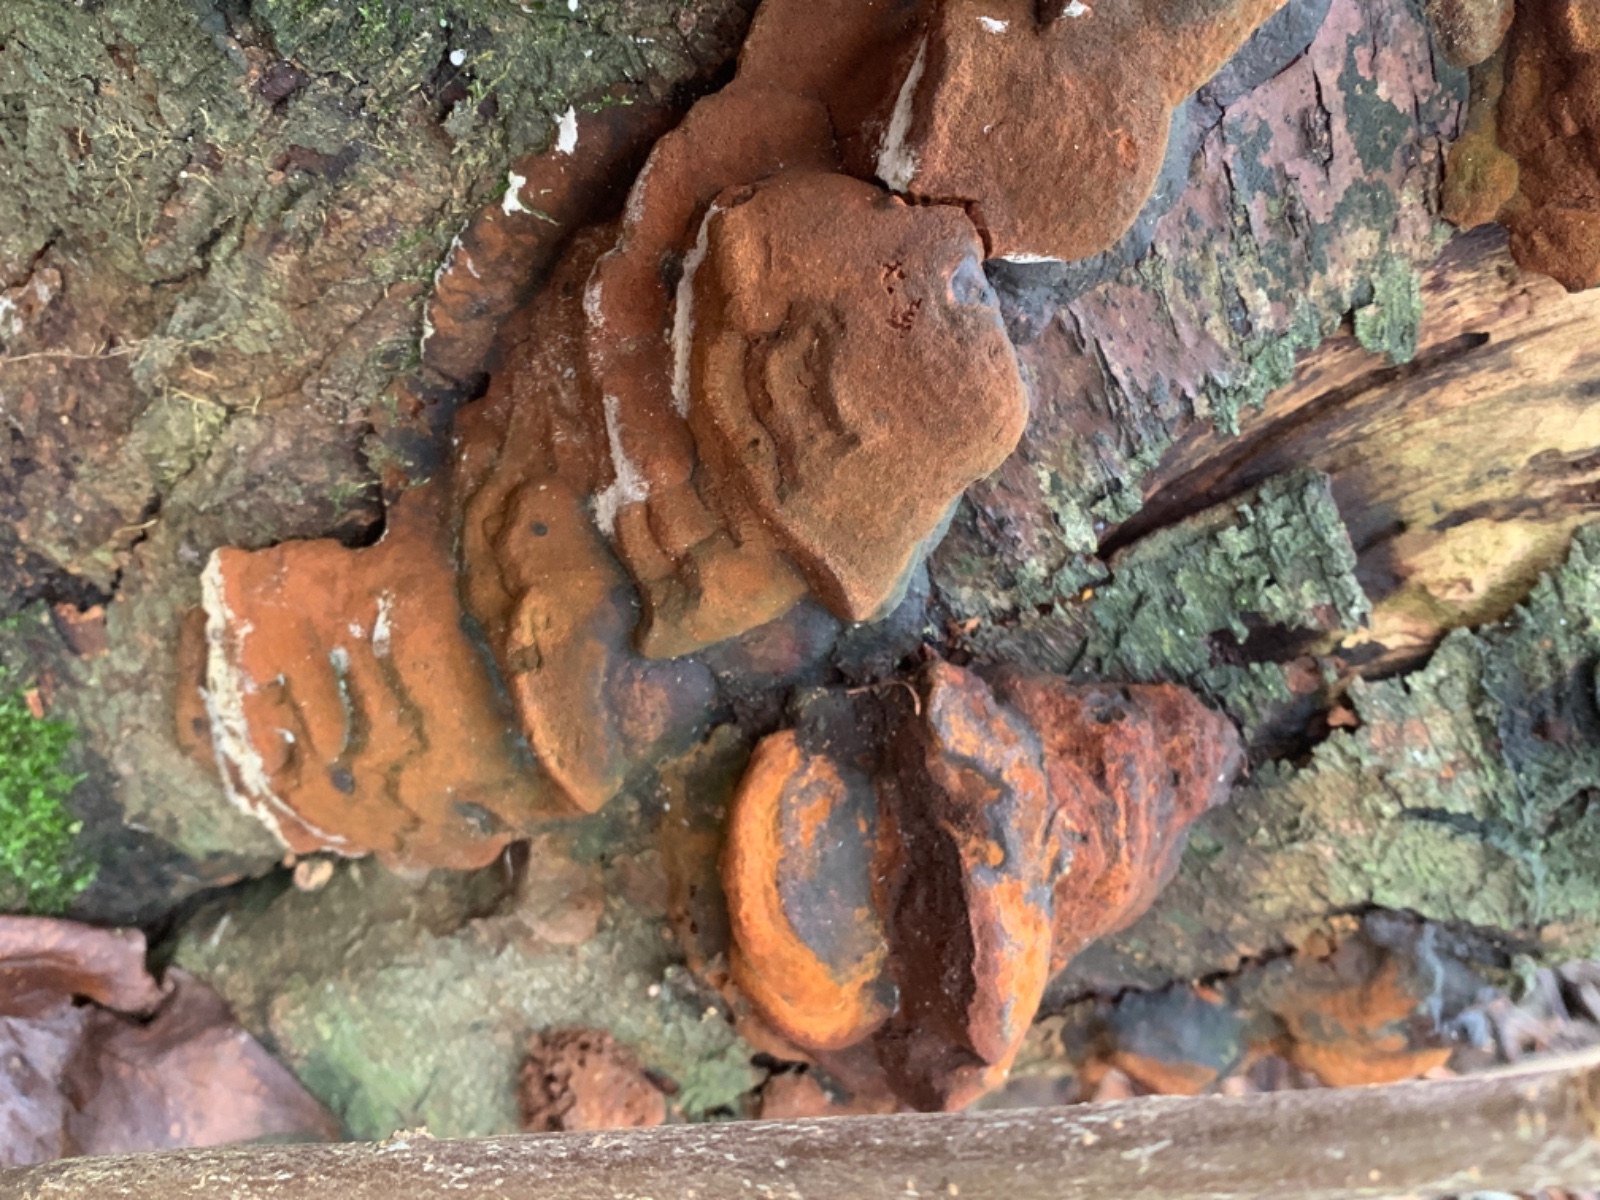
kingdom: Fungi
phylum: Basidiomycota
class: Agaricomycetes
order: Hymenochaetales
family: Hymenochaetaceae
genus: Phellinus
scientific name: Phellinus pomaceus
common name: blomme-ildporesvamp
